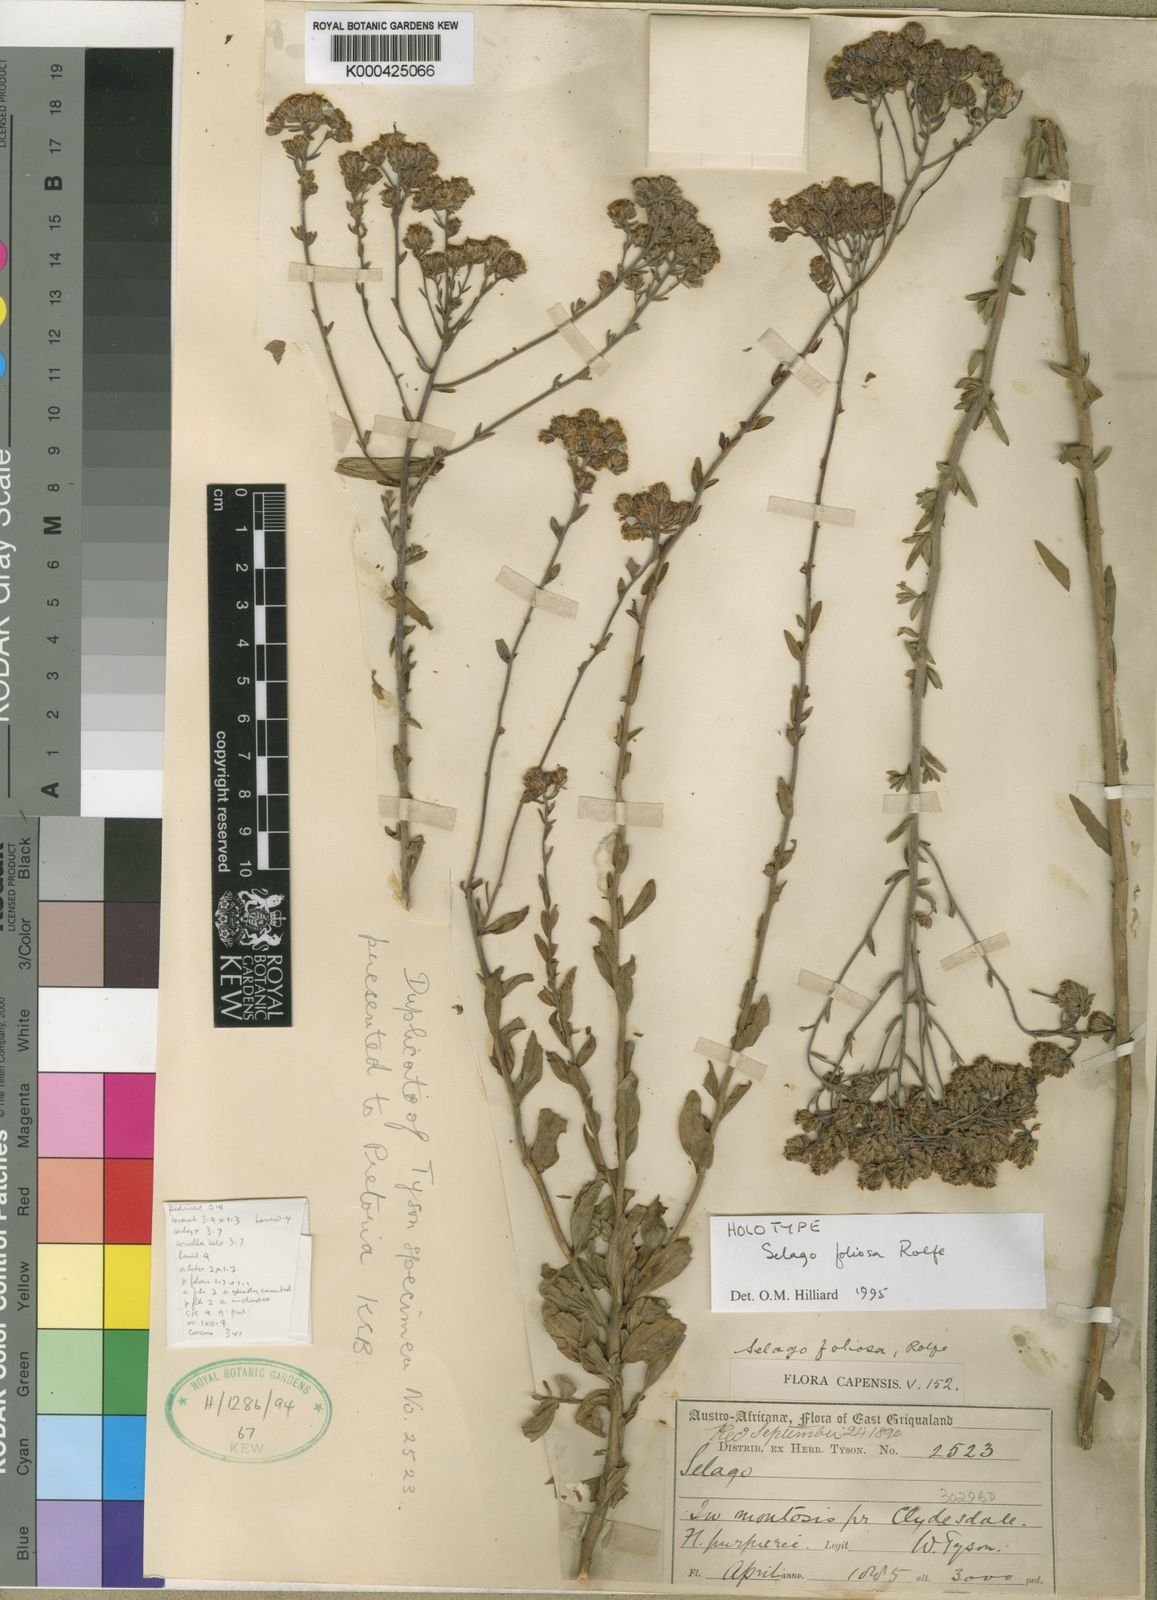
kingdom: Plantae
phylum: Tracheophyta
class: Magnoliopsida
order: Lamiales
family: Scrophulariaceae
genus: Selago
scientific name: Selago foliosa
